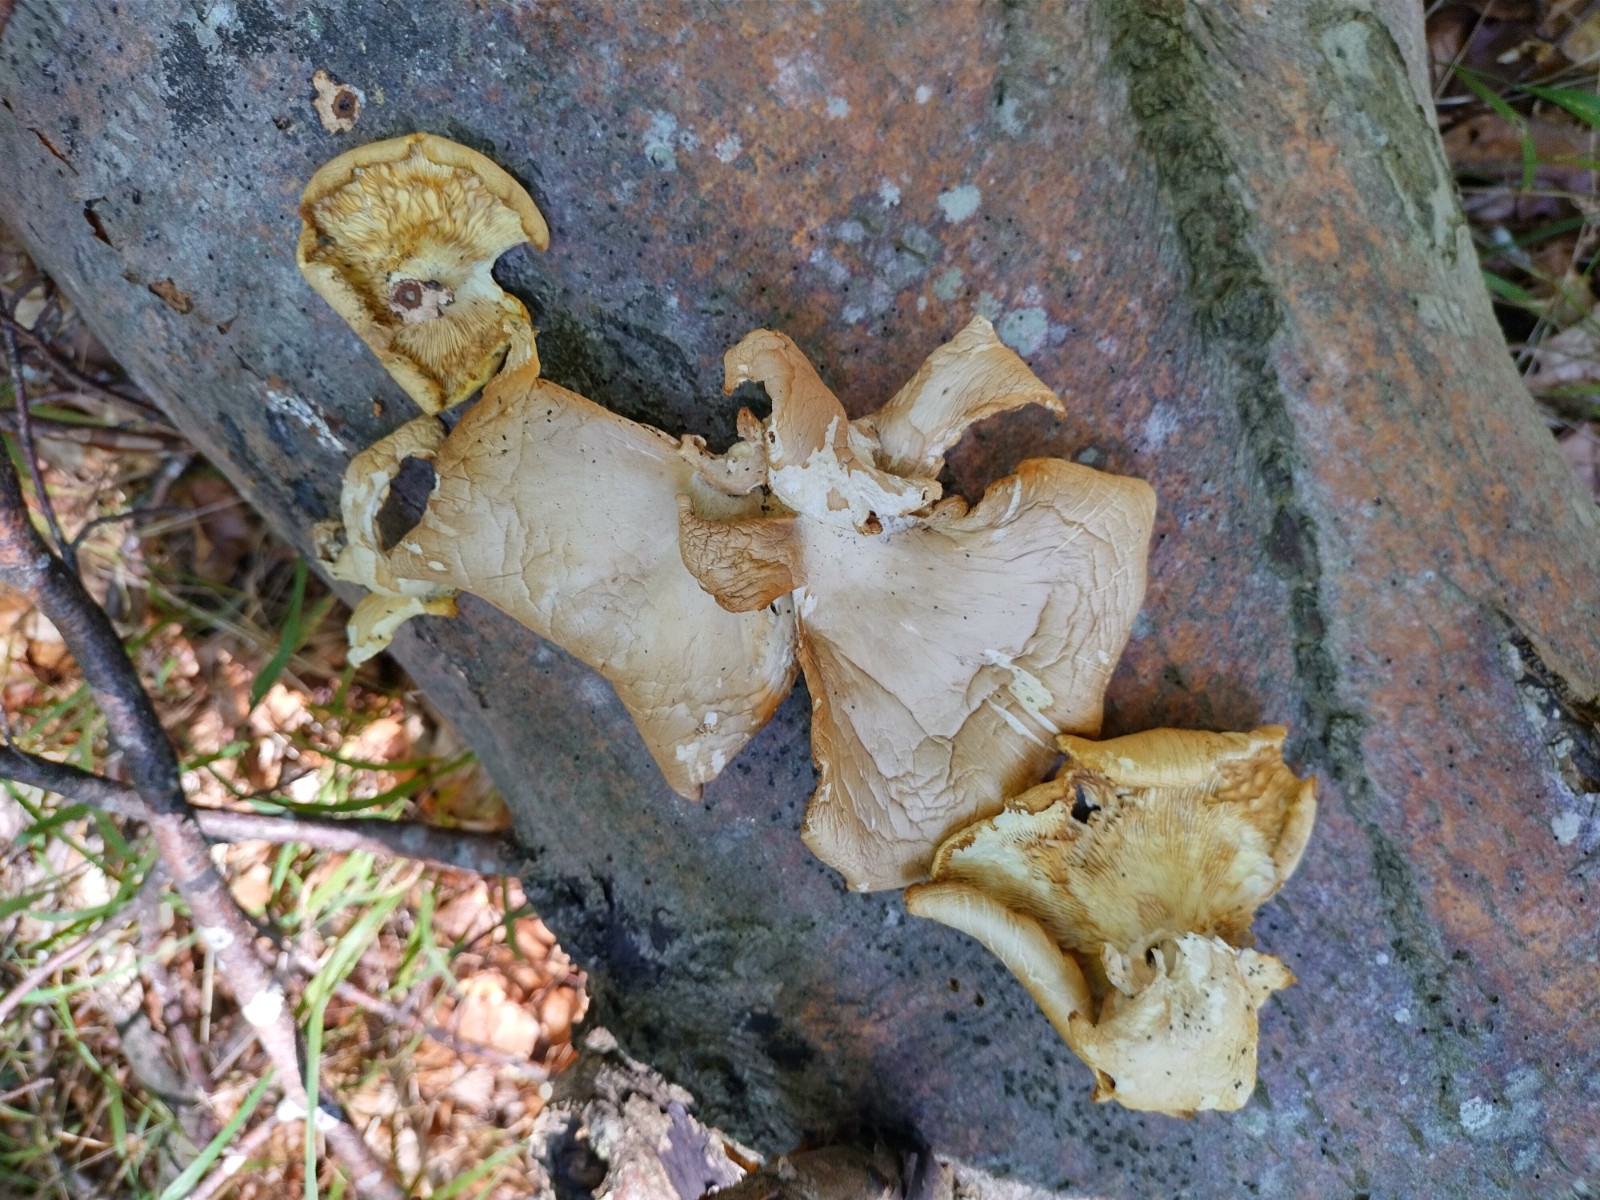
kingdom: Fungi
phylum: Basidiomycota
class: Agaricomycetes
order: Agaricales
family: Pleurotaceae
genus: Pleurotus
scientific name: Pleurotus pulmonarius
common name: sommer-østershat
